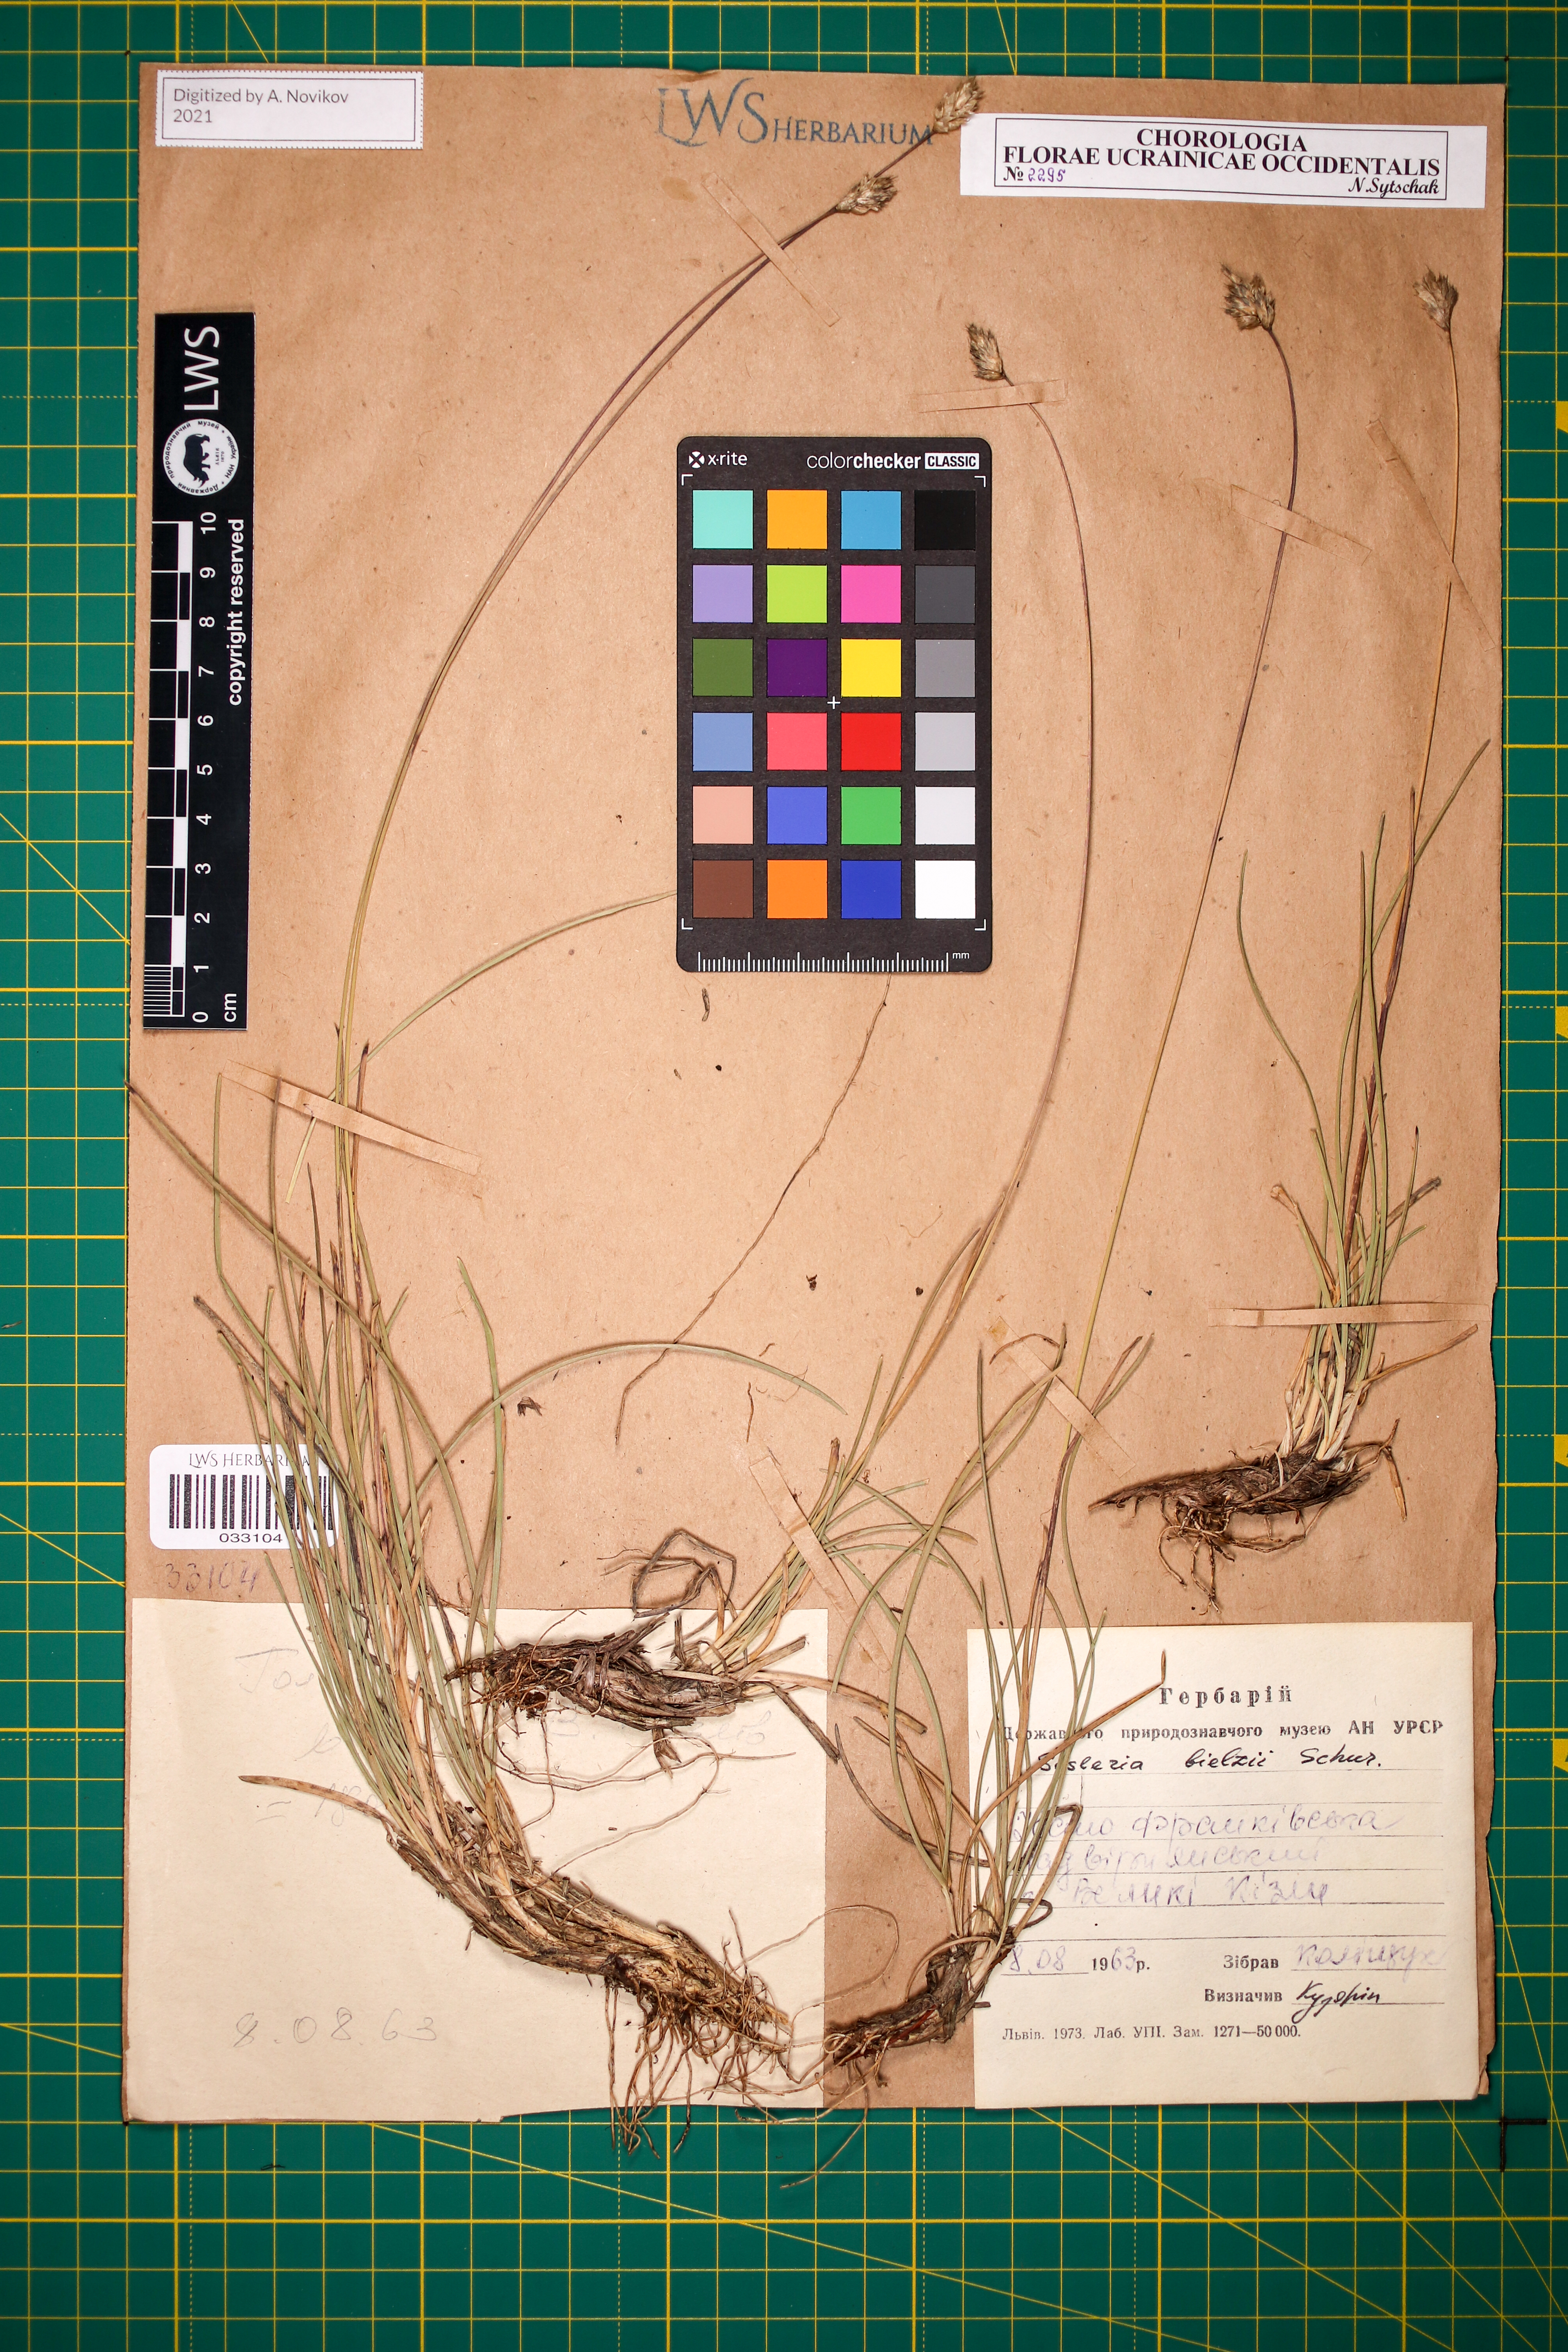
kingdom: Plantae
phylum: Tracheophyta
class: Liliopsida
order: Poales
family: Poaceae
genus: Sesleria
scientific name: Sesleria bielzii
